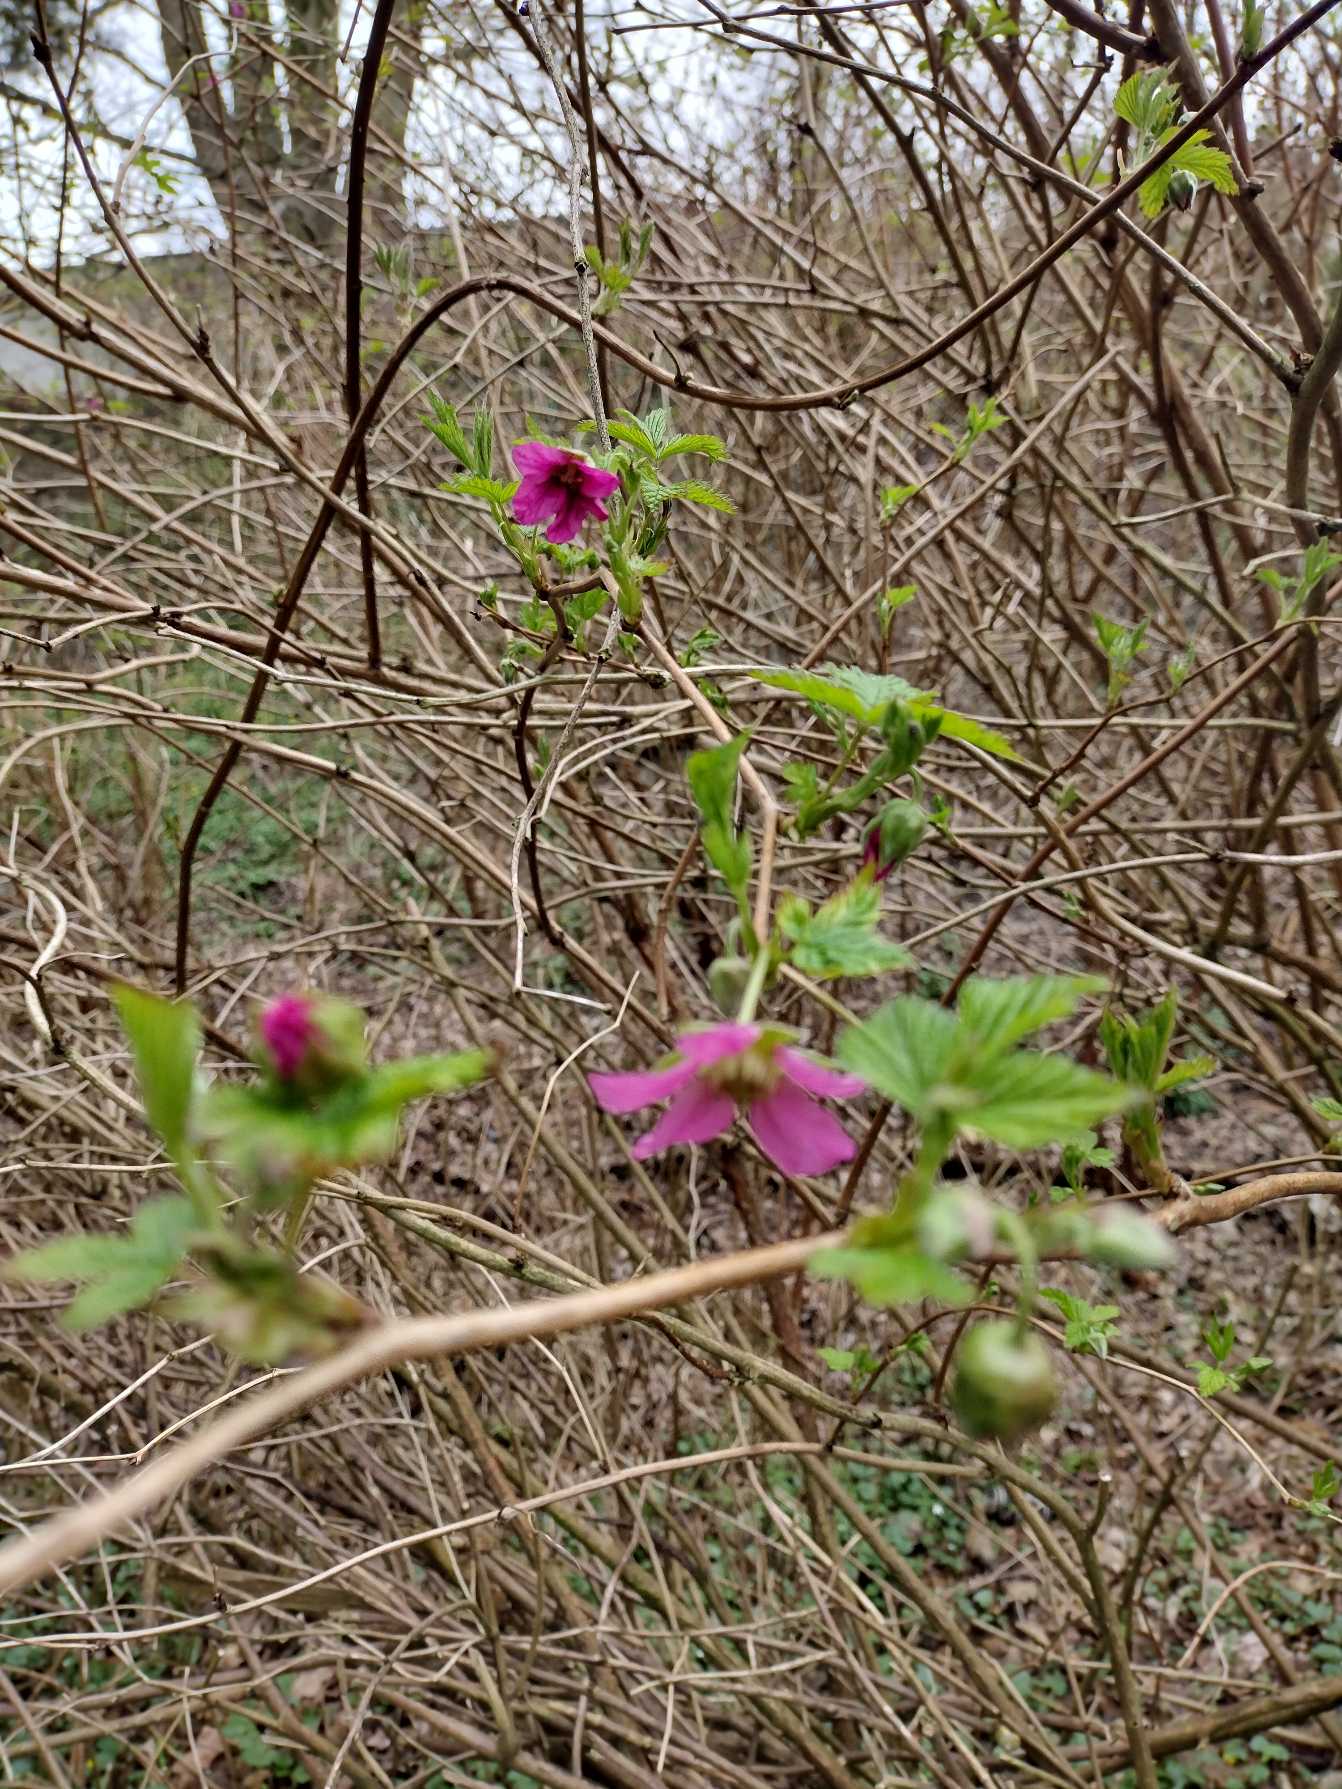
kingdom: Plantae
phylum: Tracheophyta
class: Magnoliopsida
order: Rosales
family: Rosaceae
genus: Rubus
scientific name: Rubus spectabilis
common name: Laksebær
